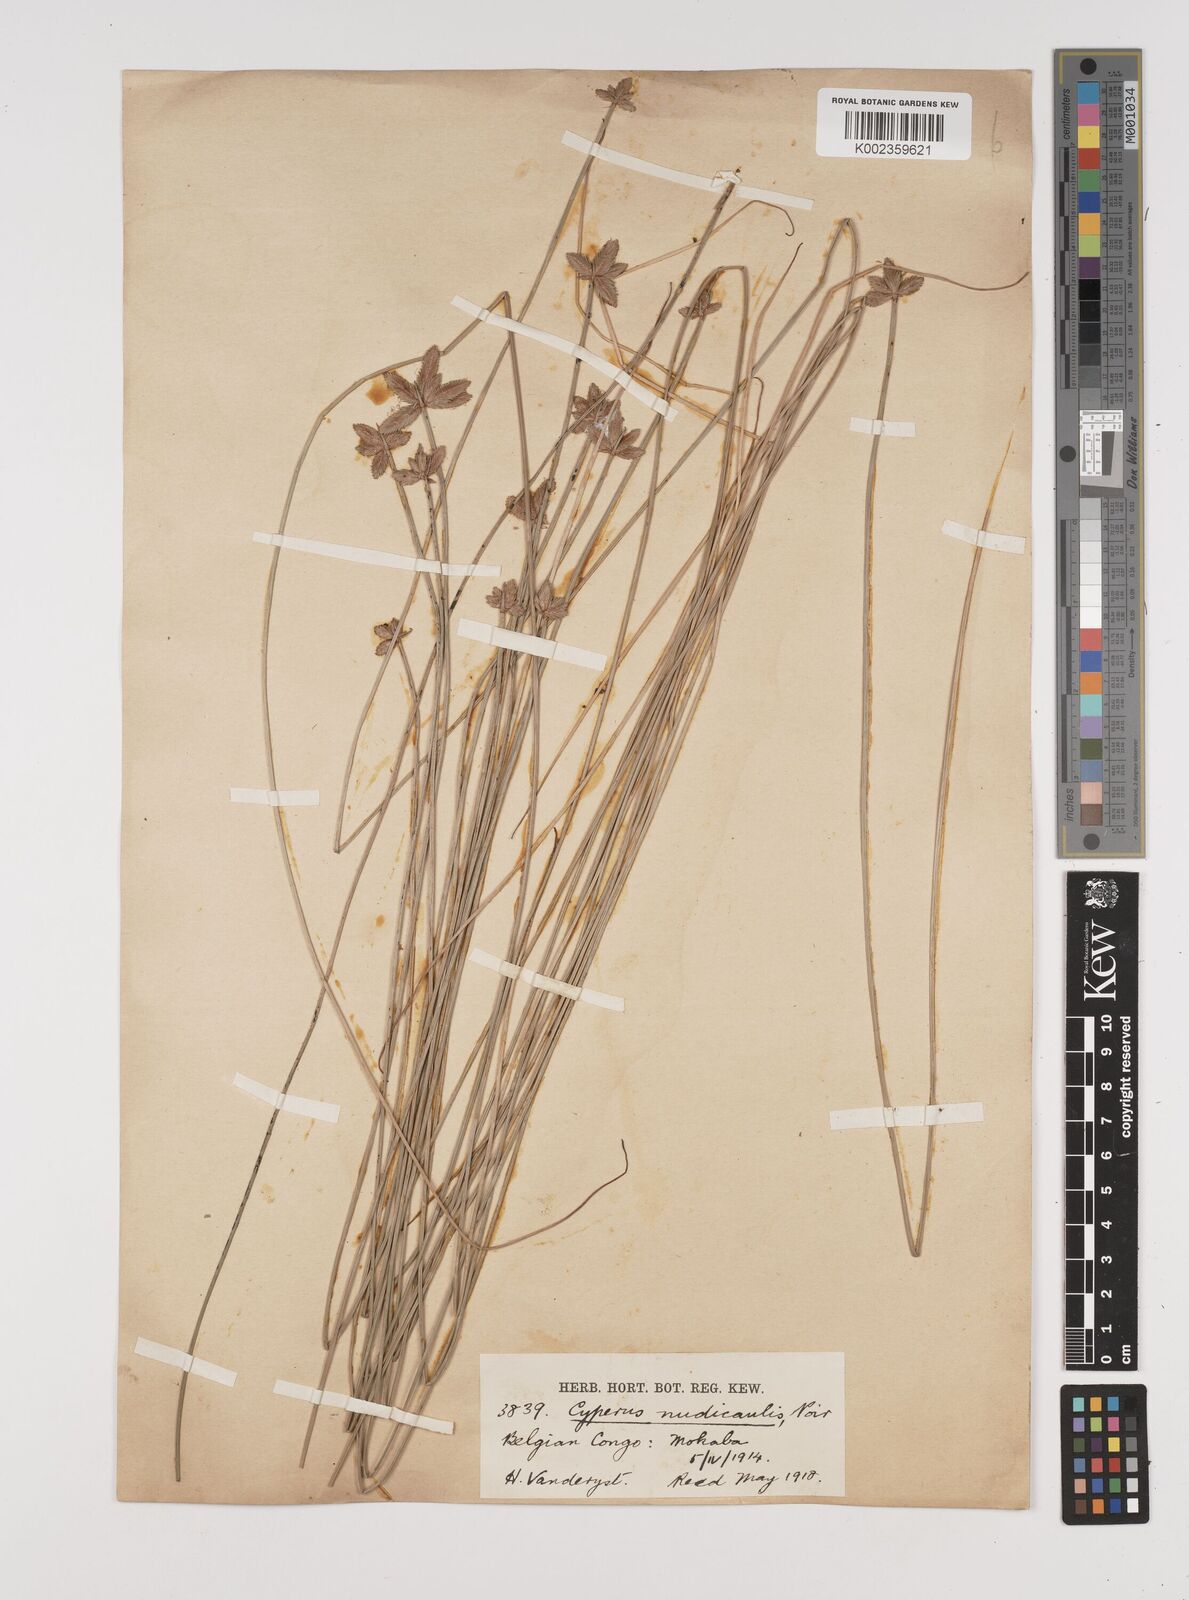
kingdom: Plantae
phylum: Tracheophyta
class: Liliopsida
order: Poales
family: Cyperaceae
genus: Cyperus
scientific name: Cyperus pectinatus
